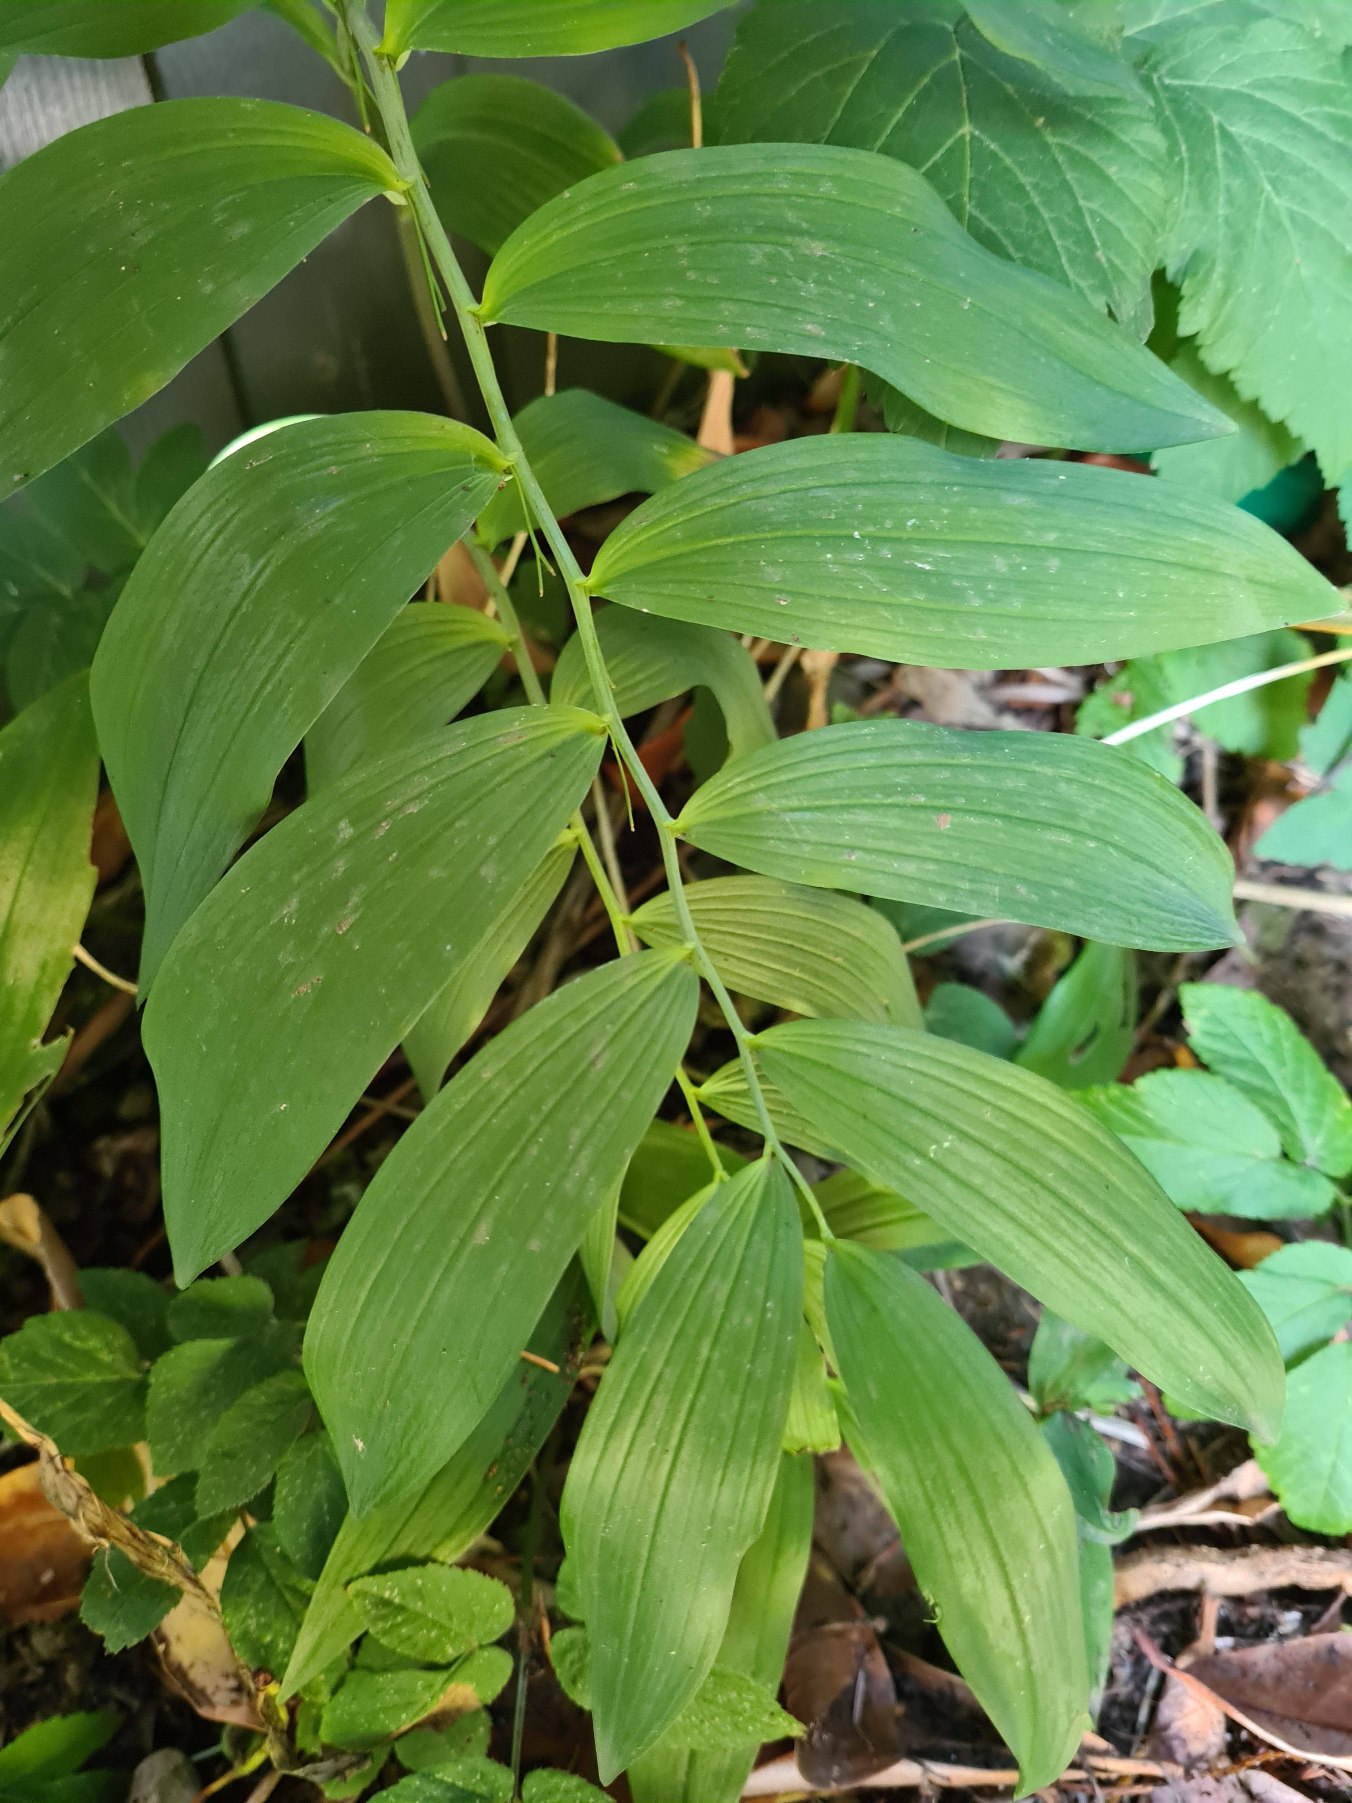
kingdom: Plantae
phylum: Tracheophyta
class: Liliopsida
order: Asparagales
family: Asparagaceae
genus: Polygonatum
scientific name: Polygonatum
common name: Hybrid-konval
